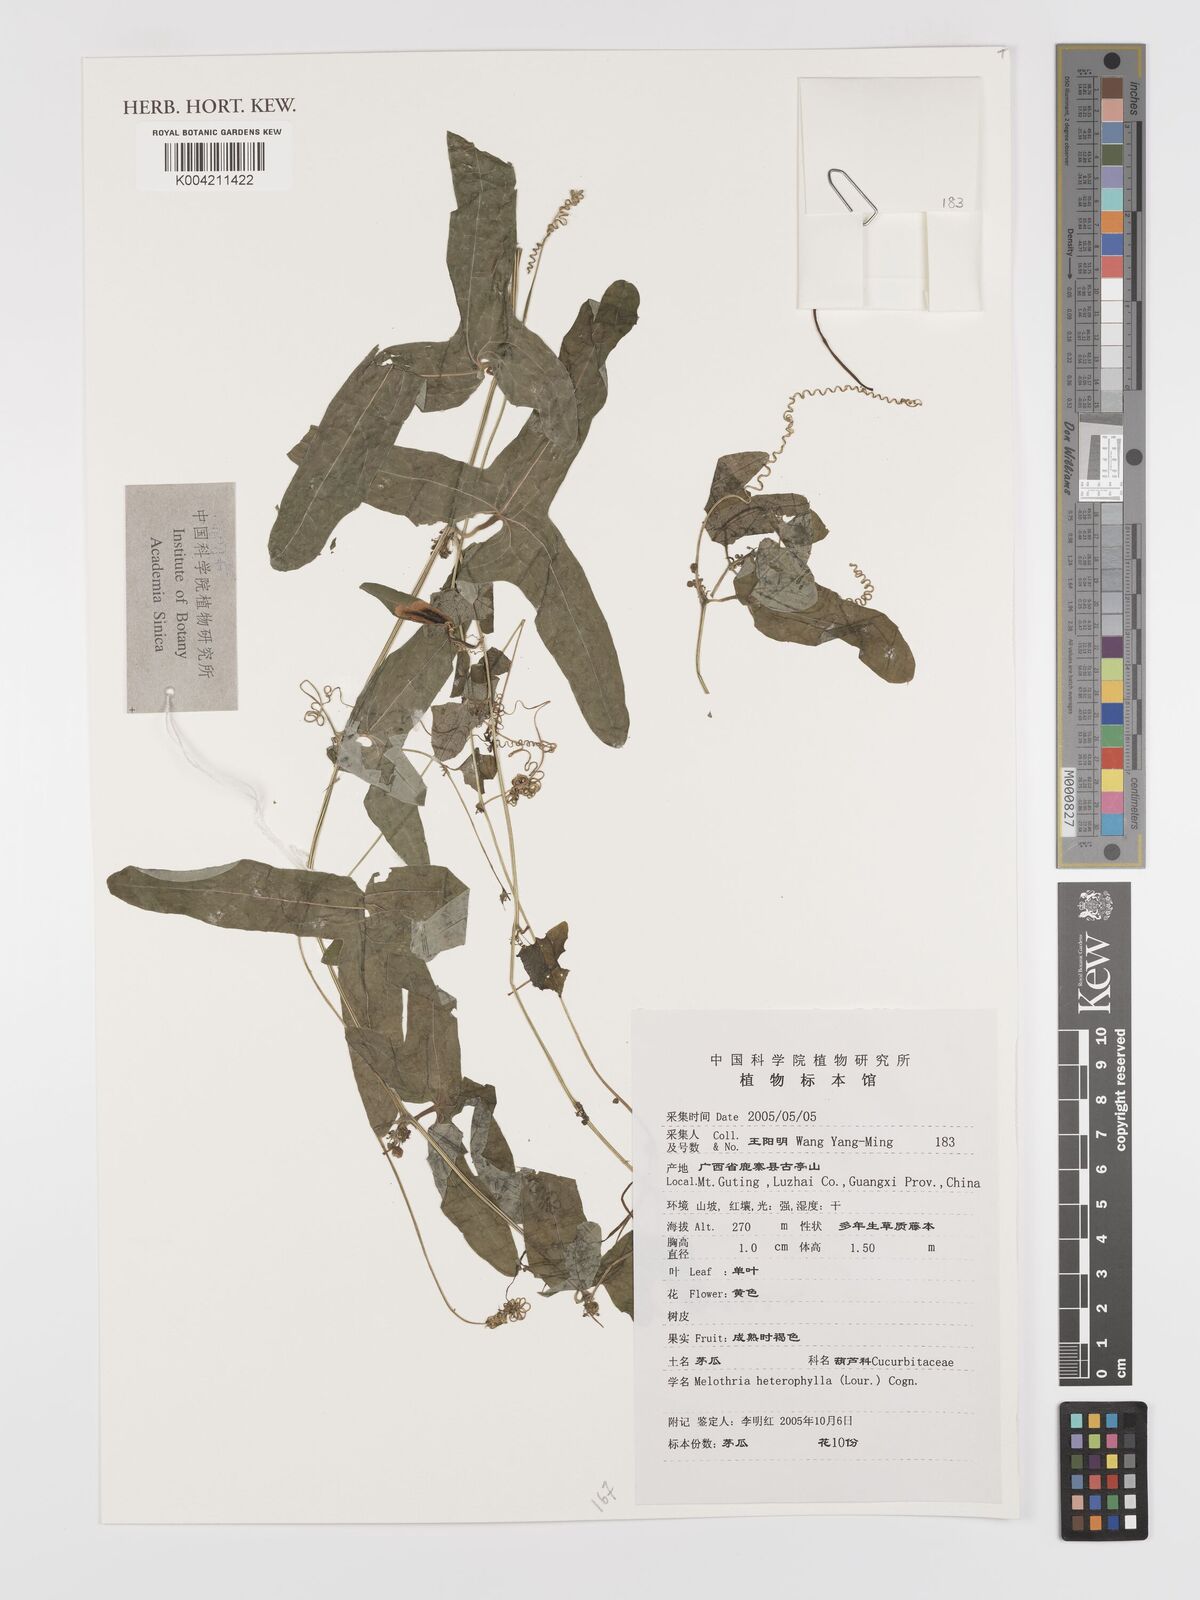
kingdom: Plantae
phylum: Tracheophyta
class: Magnoliopsida
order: Cucurbitales
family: Cucurbitaceae
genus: Solena
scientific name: Solena heterophylla
